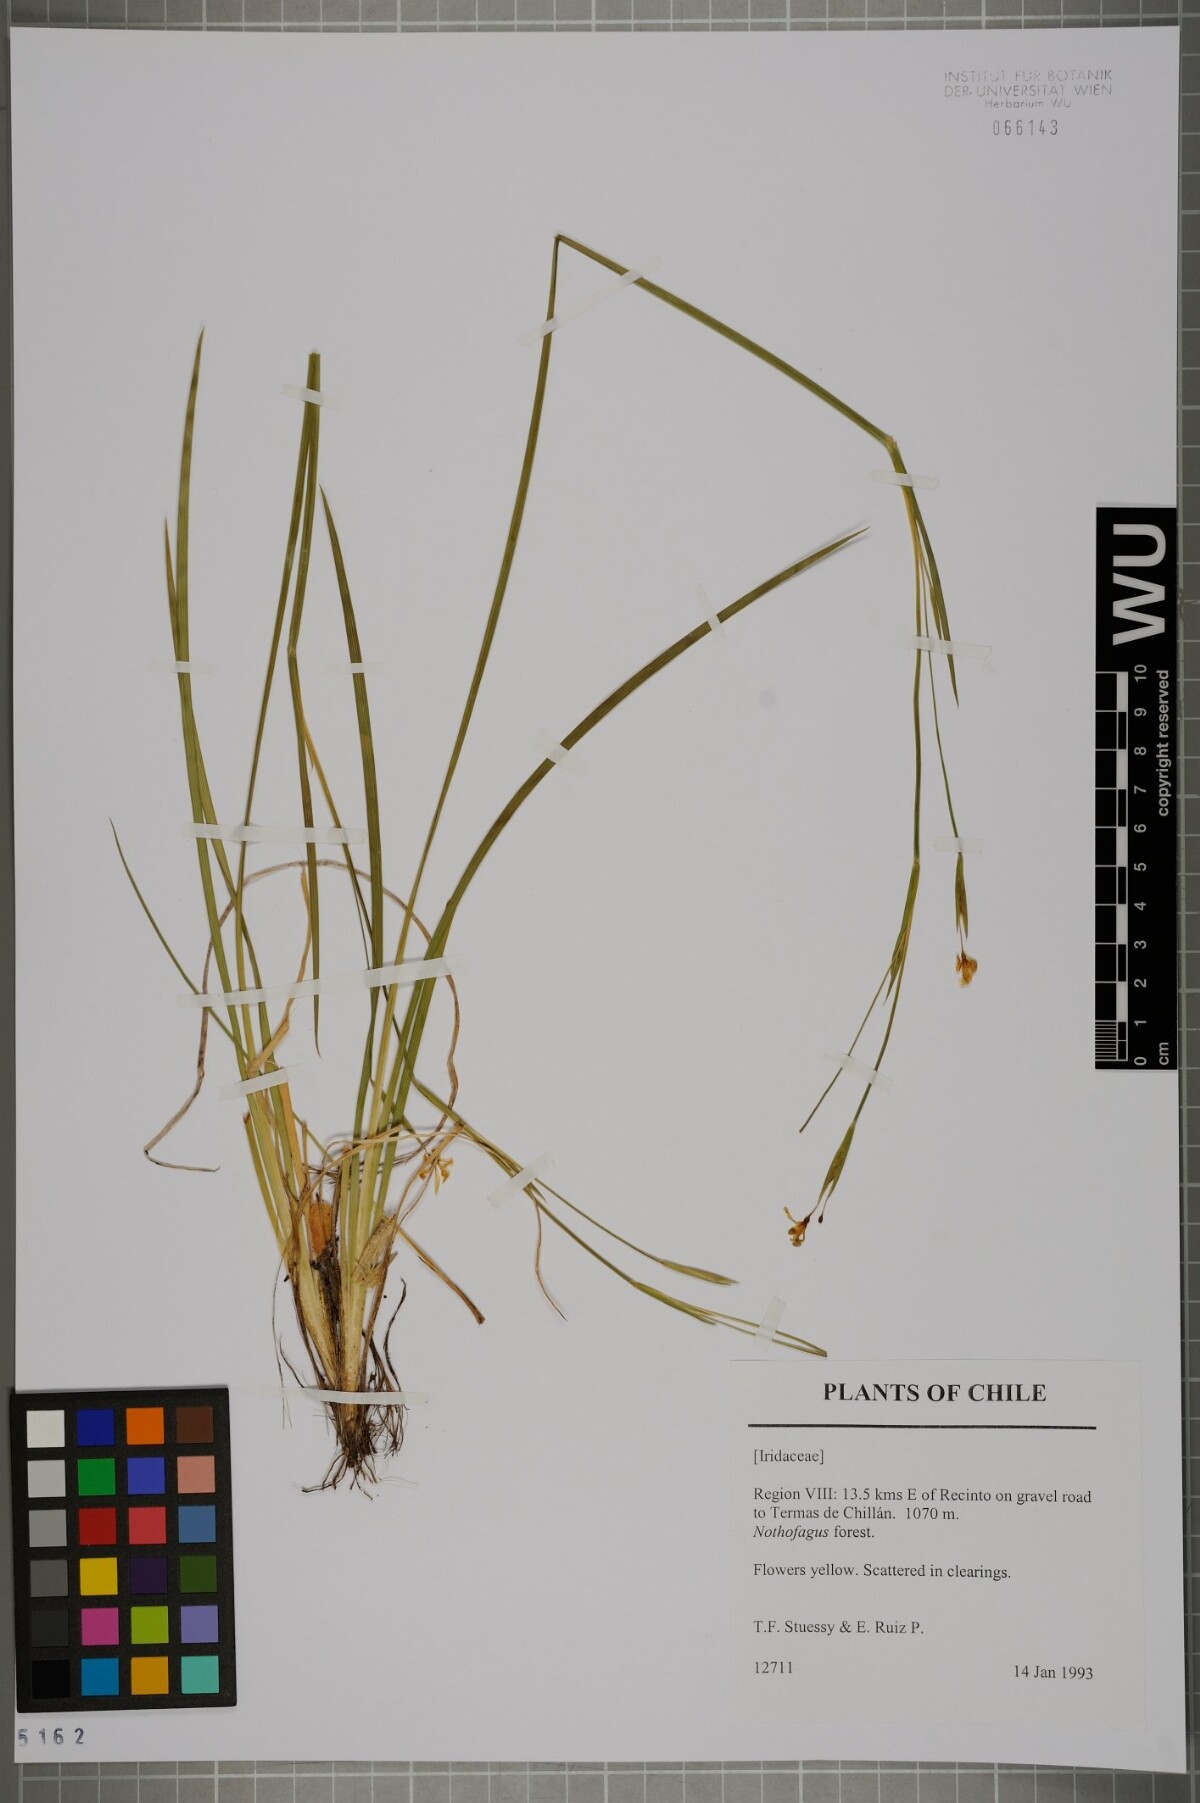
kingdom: Plantae
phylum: Tracheophyta
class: Liliopsida
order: Asparagales
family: Iridaceae
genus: Sisyrinchium
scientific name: Sisyrinchium
